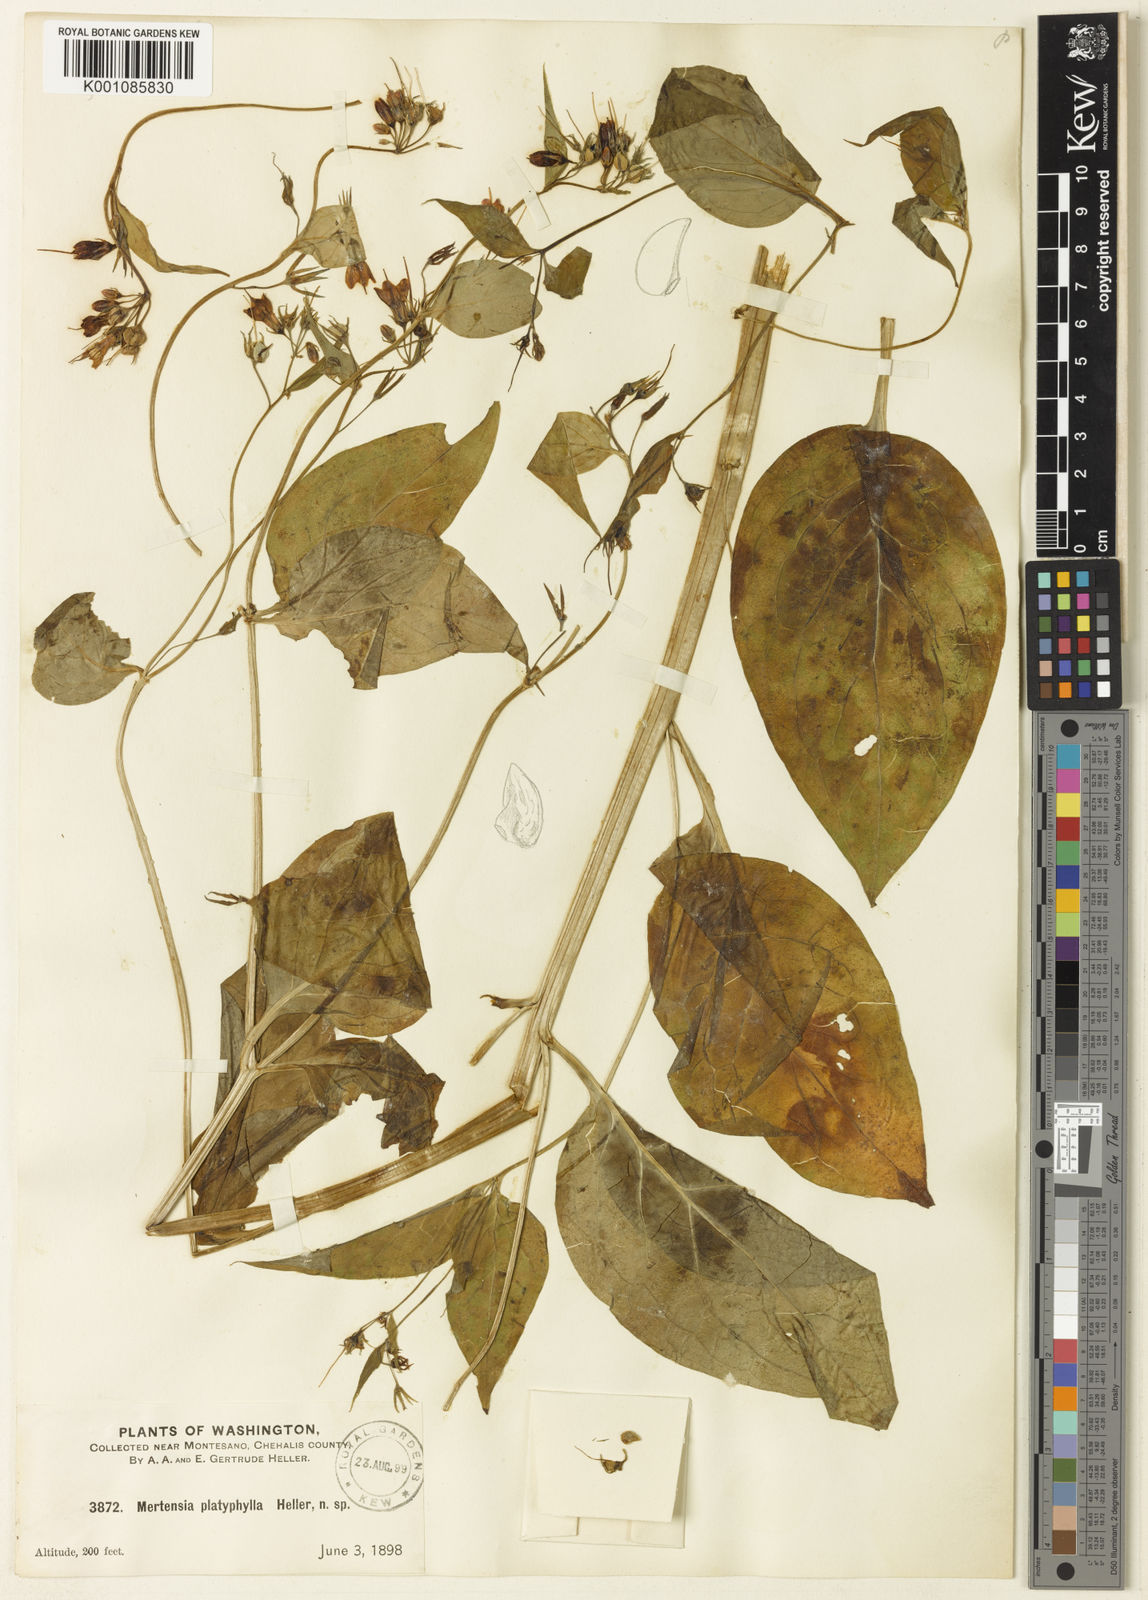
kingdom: Plantae
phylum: Tracheophyta
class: Magnoliopsida
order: Boraginales
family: Boraginaceae
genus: Mertensia
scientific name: Mertensia platyphylla
